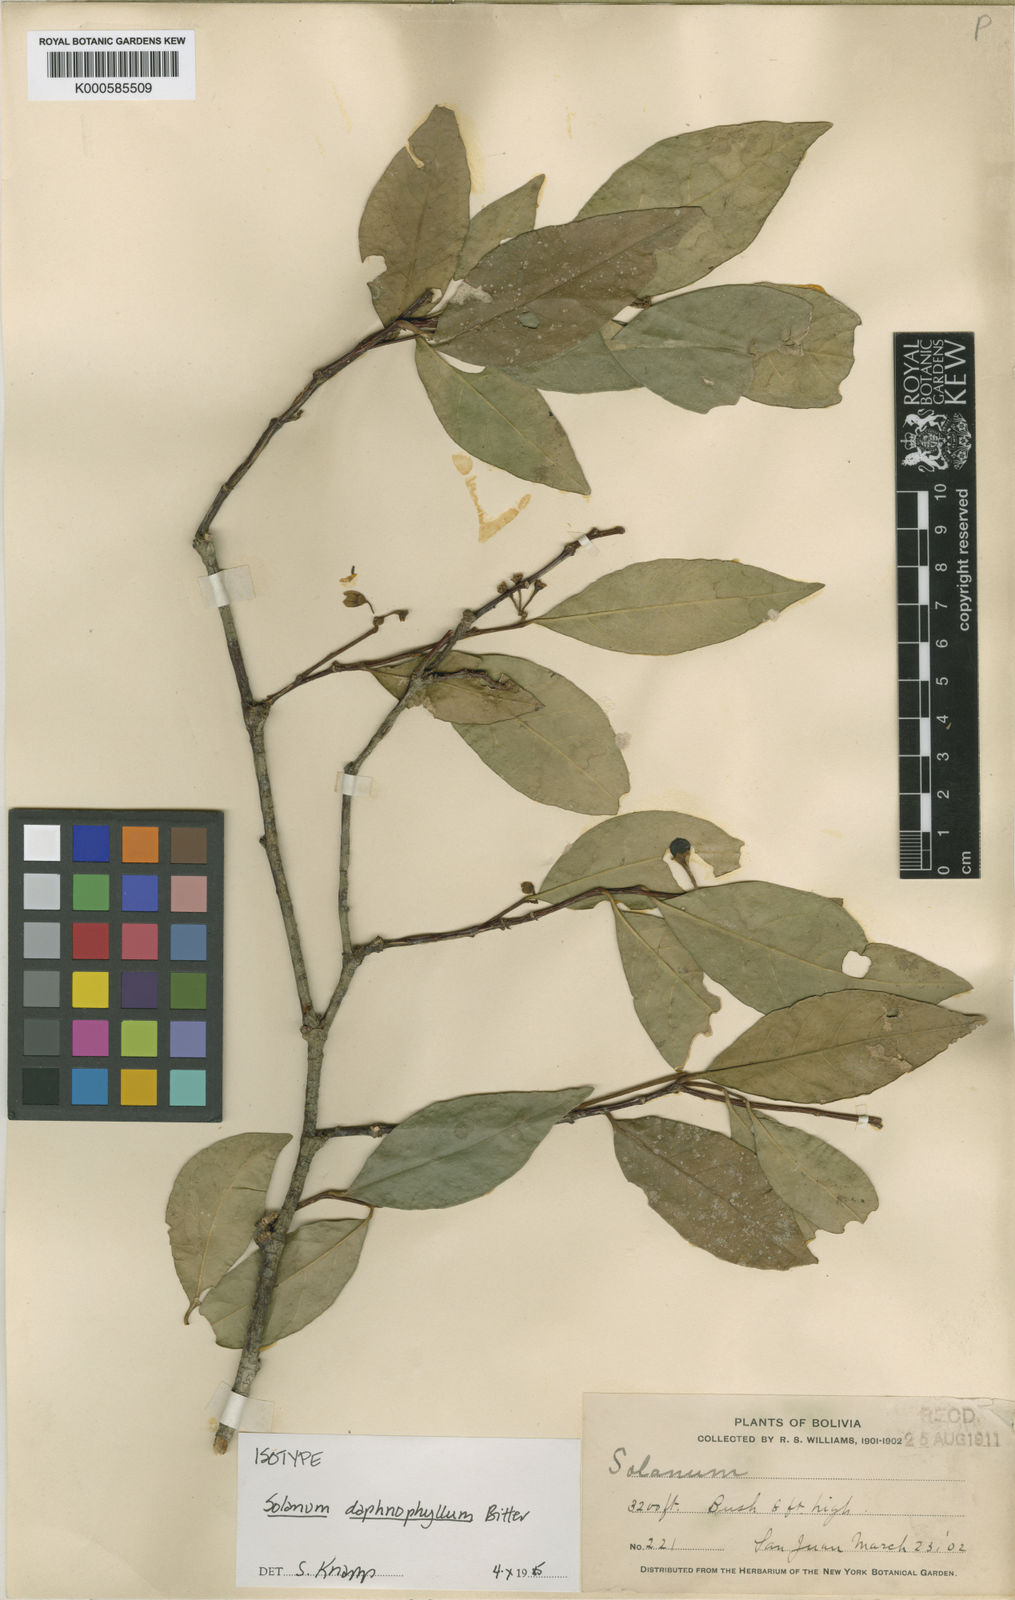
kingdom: Plantae
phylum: Tracheophyta
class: Magnoliopsida
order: Solanales
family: Solanaceae
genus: Solanum
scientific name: Solanum daphnophyllum
